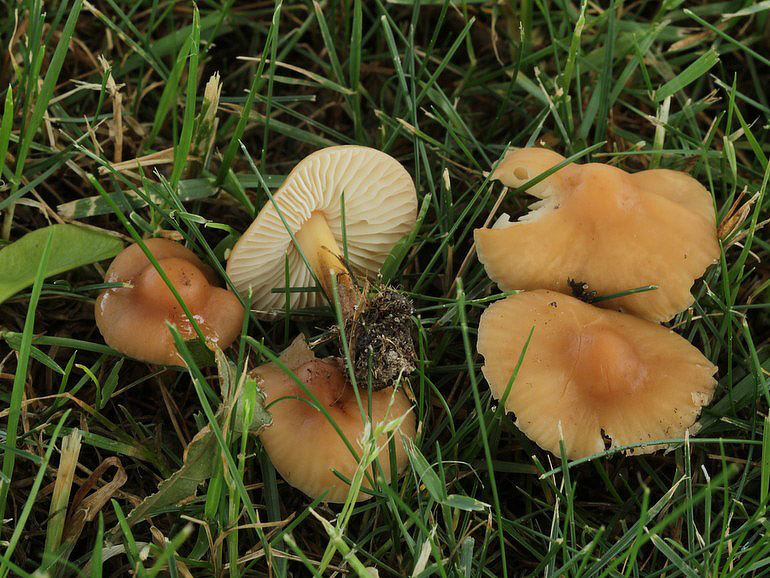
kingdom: Fungi
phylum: Basidiomycota
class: Agaricomycetes
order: Agaricales
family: Marasmiaceae
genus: Marasmius
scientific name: Marasmius oreades
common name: elledans-bruskhat
